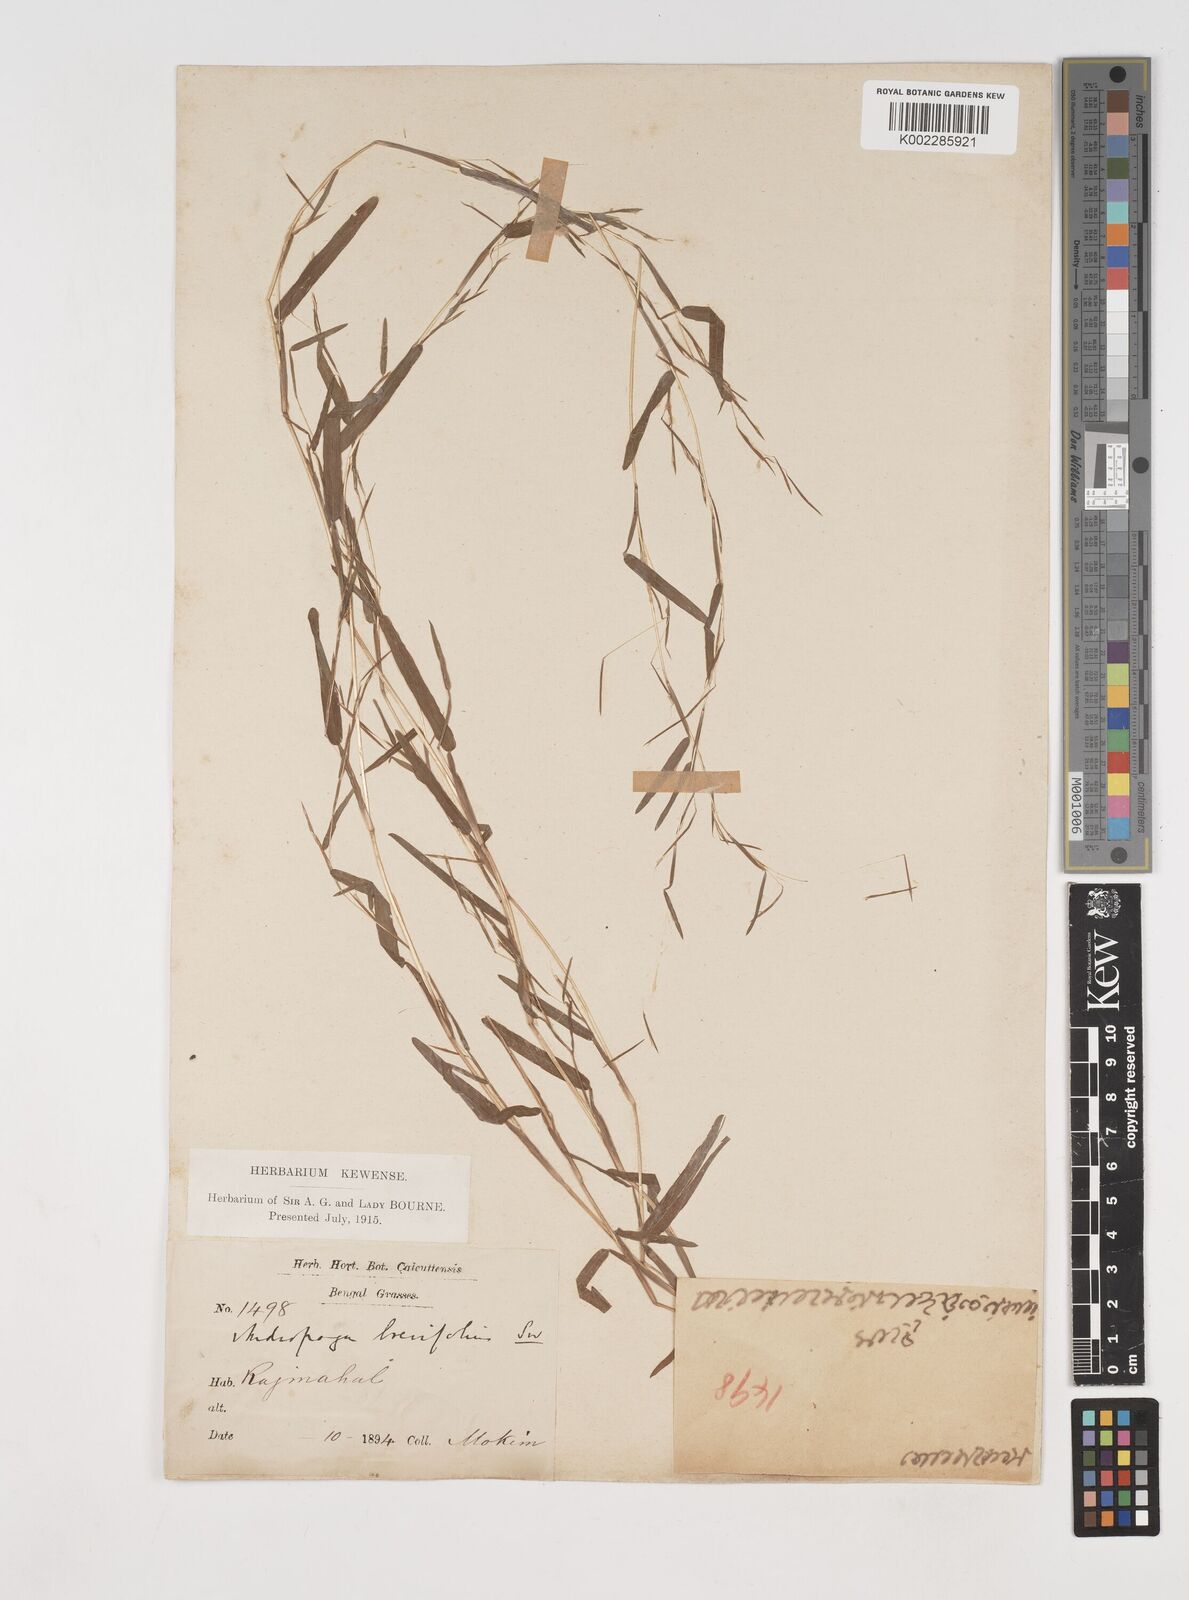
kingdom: Plantae
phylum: Tracheophyta
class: Liliopsida
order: Poales
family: Poaceae
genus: Schizachyrium
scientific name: Schizachyrium brevifolium
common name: Serillo dulce
